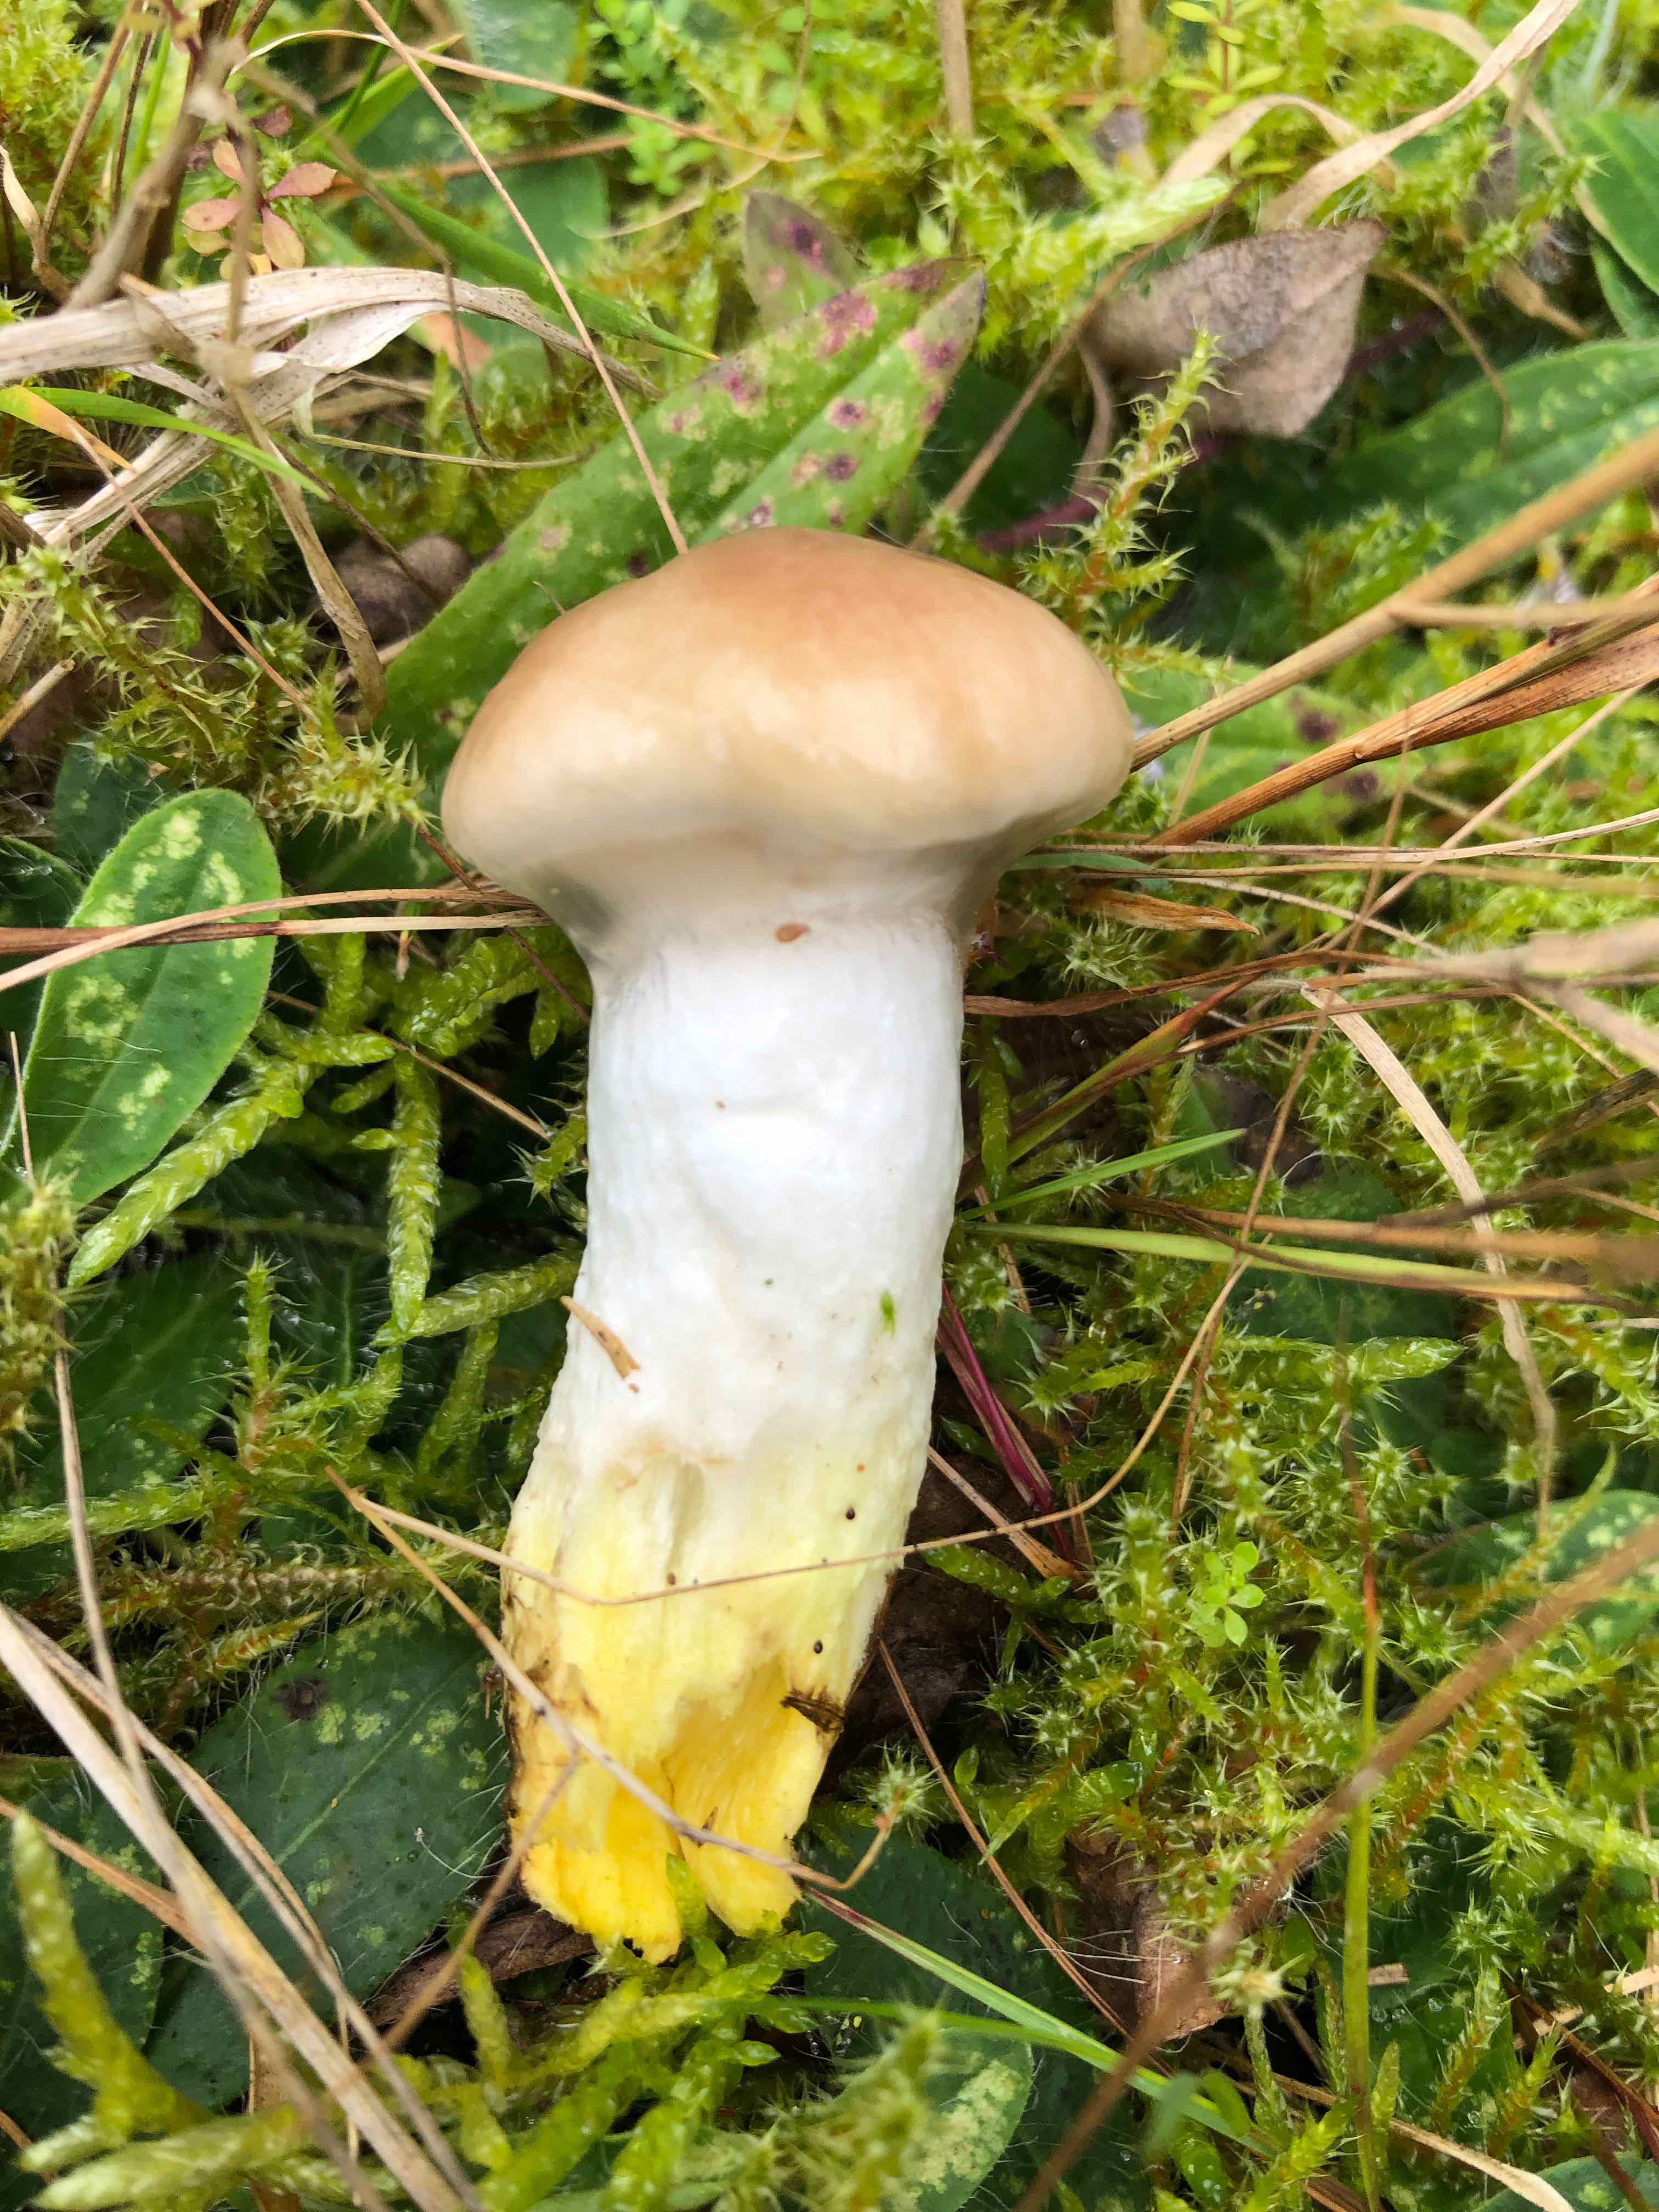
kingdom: Fungi
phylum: Basidiomycota
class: Agaricomycetes
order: Boletales
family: Gomphidiaceae
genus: Gomphidius
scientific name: Gomphidius glutinosus
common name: grå slimslør
